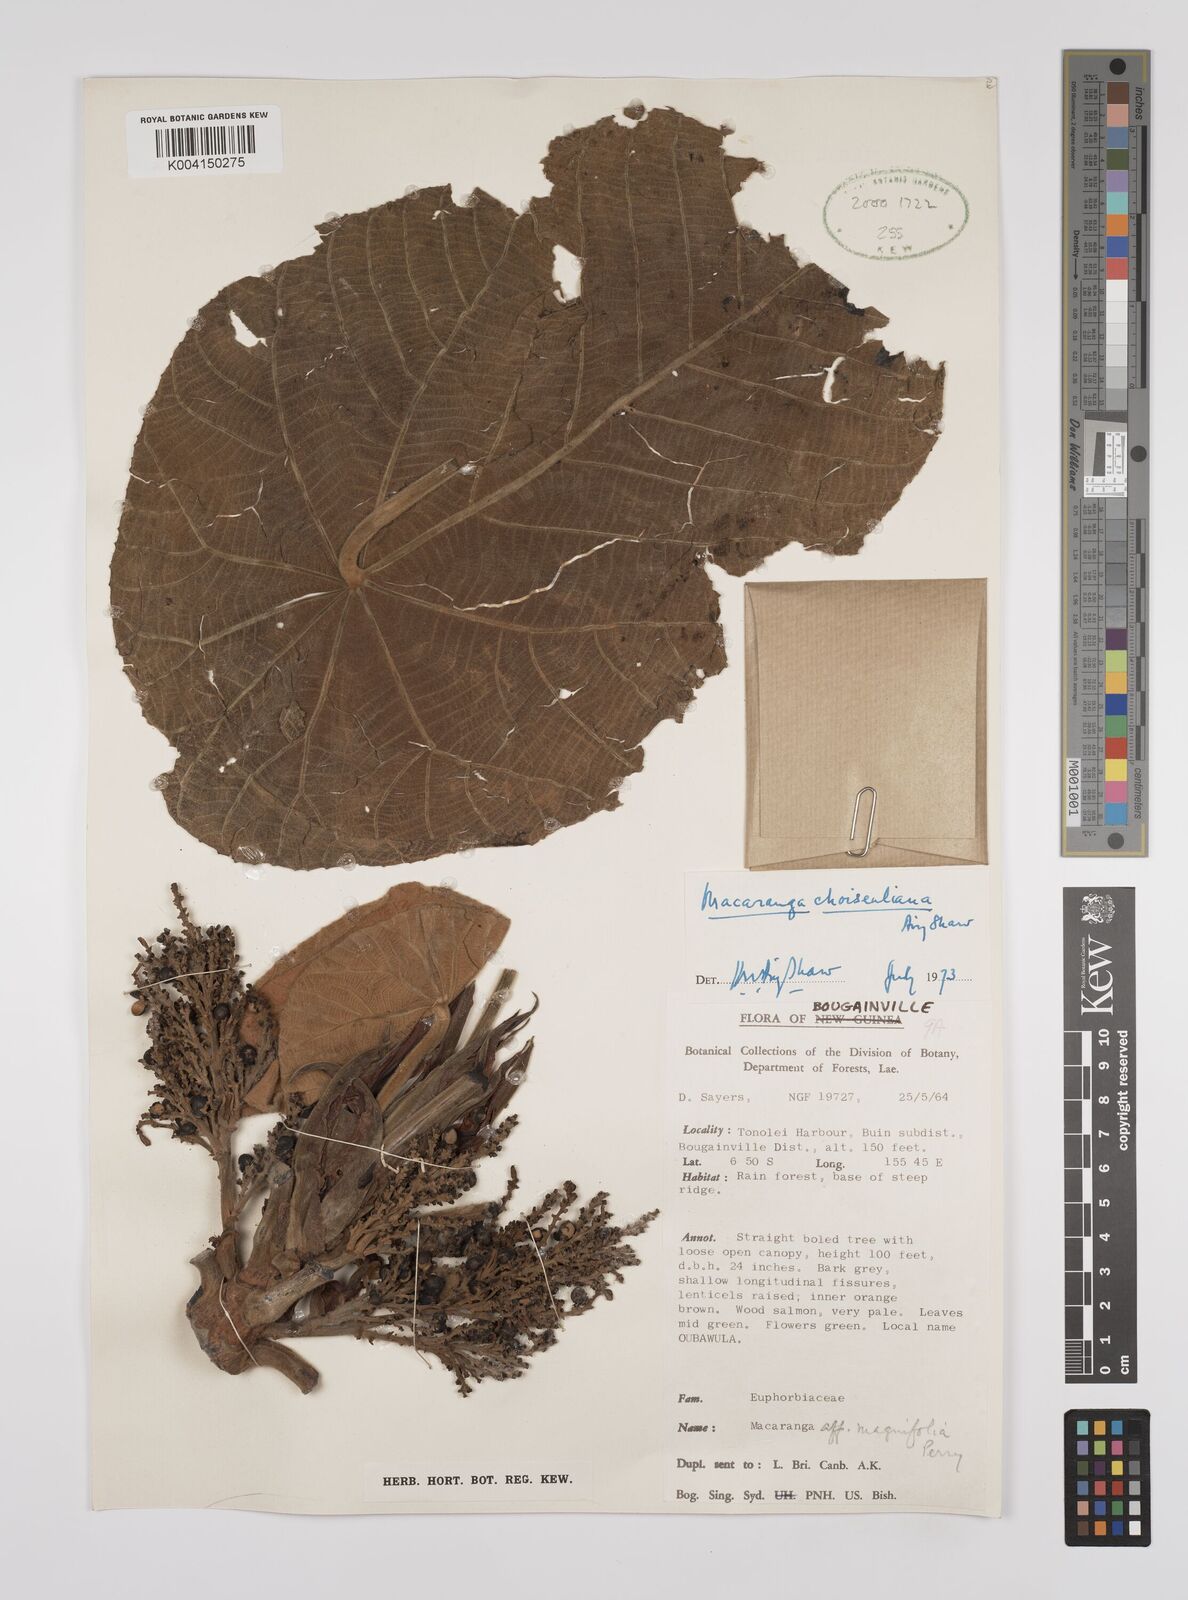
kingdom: Plantae
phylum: Tracheophyta
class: Magnoliopsida
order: Malpighiales
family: Euphorbiaceae
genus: Macaranga
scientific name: Macaranga choiseuliana
